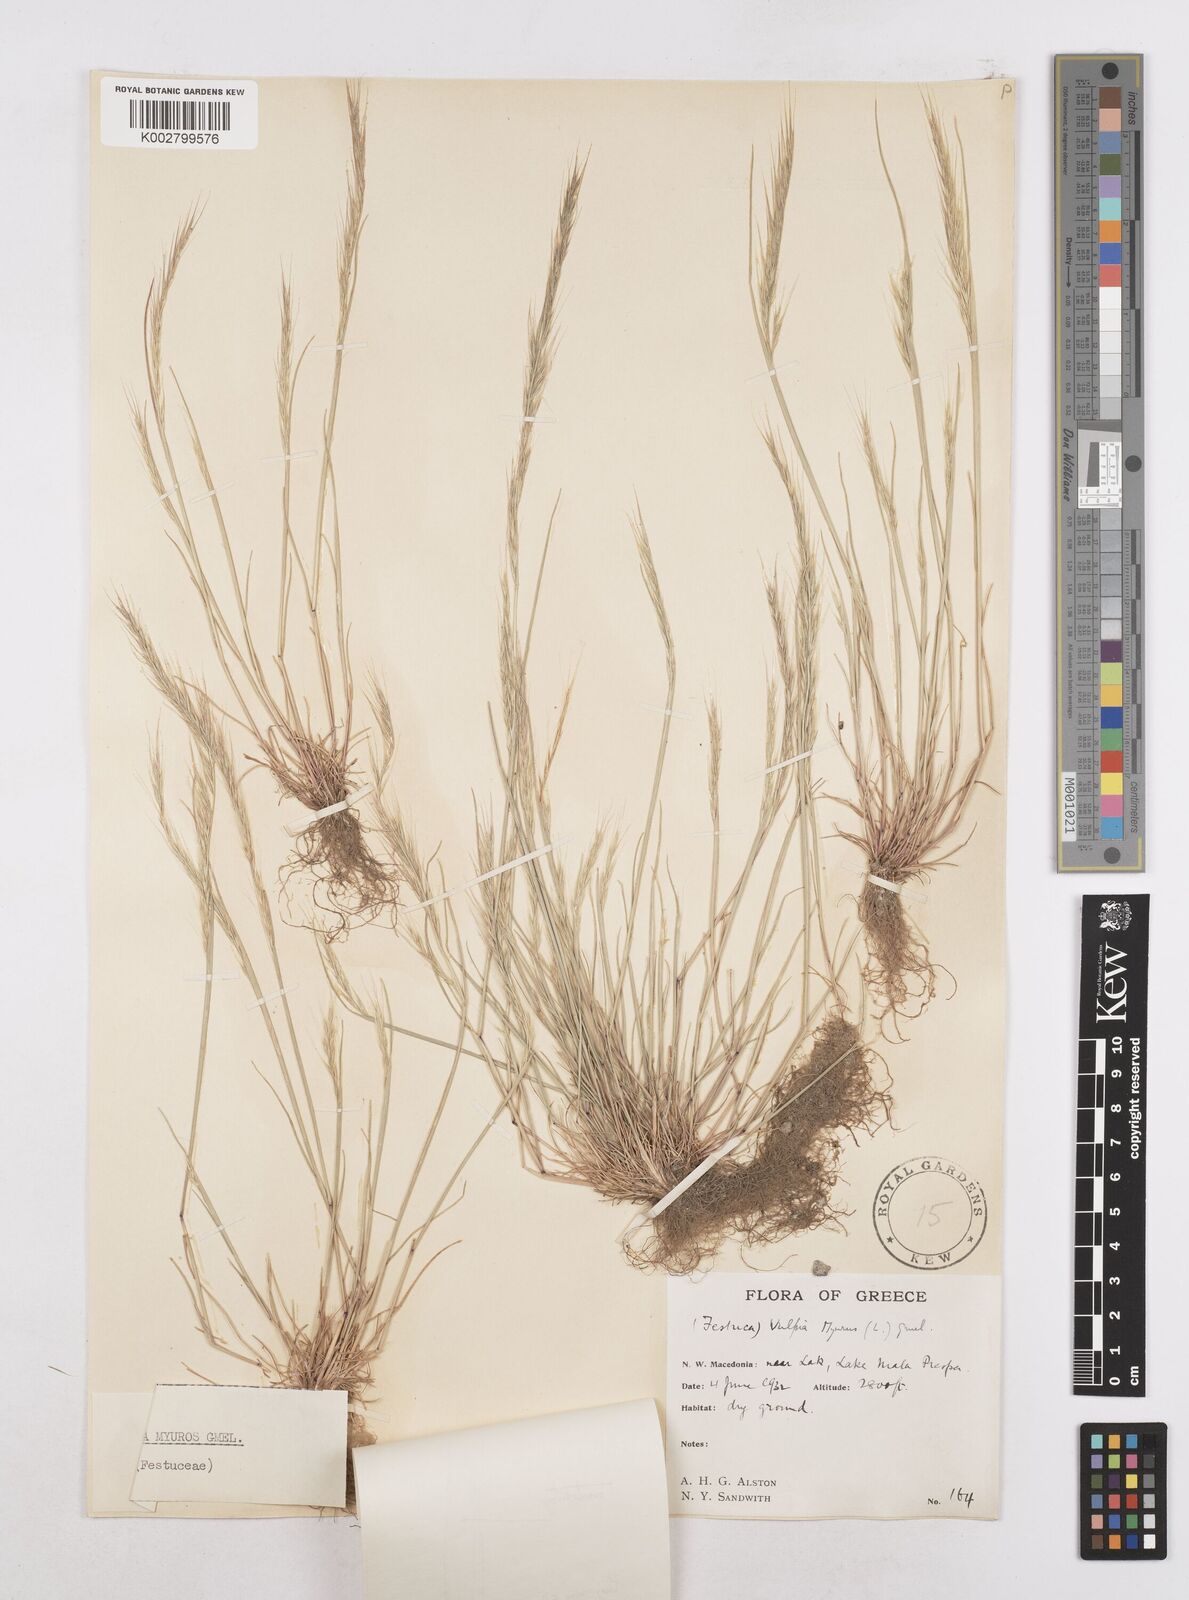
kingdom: Plantae
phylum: Tracheophyta
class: Liliopsida
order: Poales
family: Poaceae
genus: Festuca
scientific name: Festuca myuros
